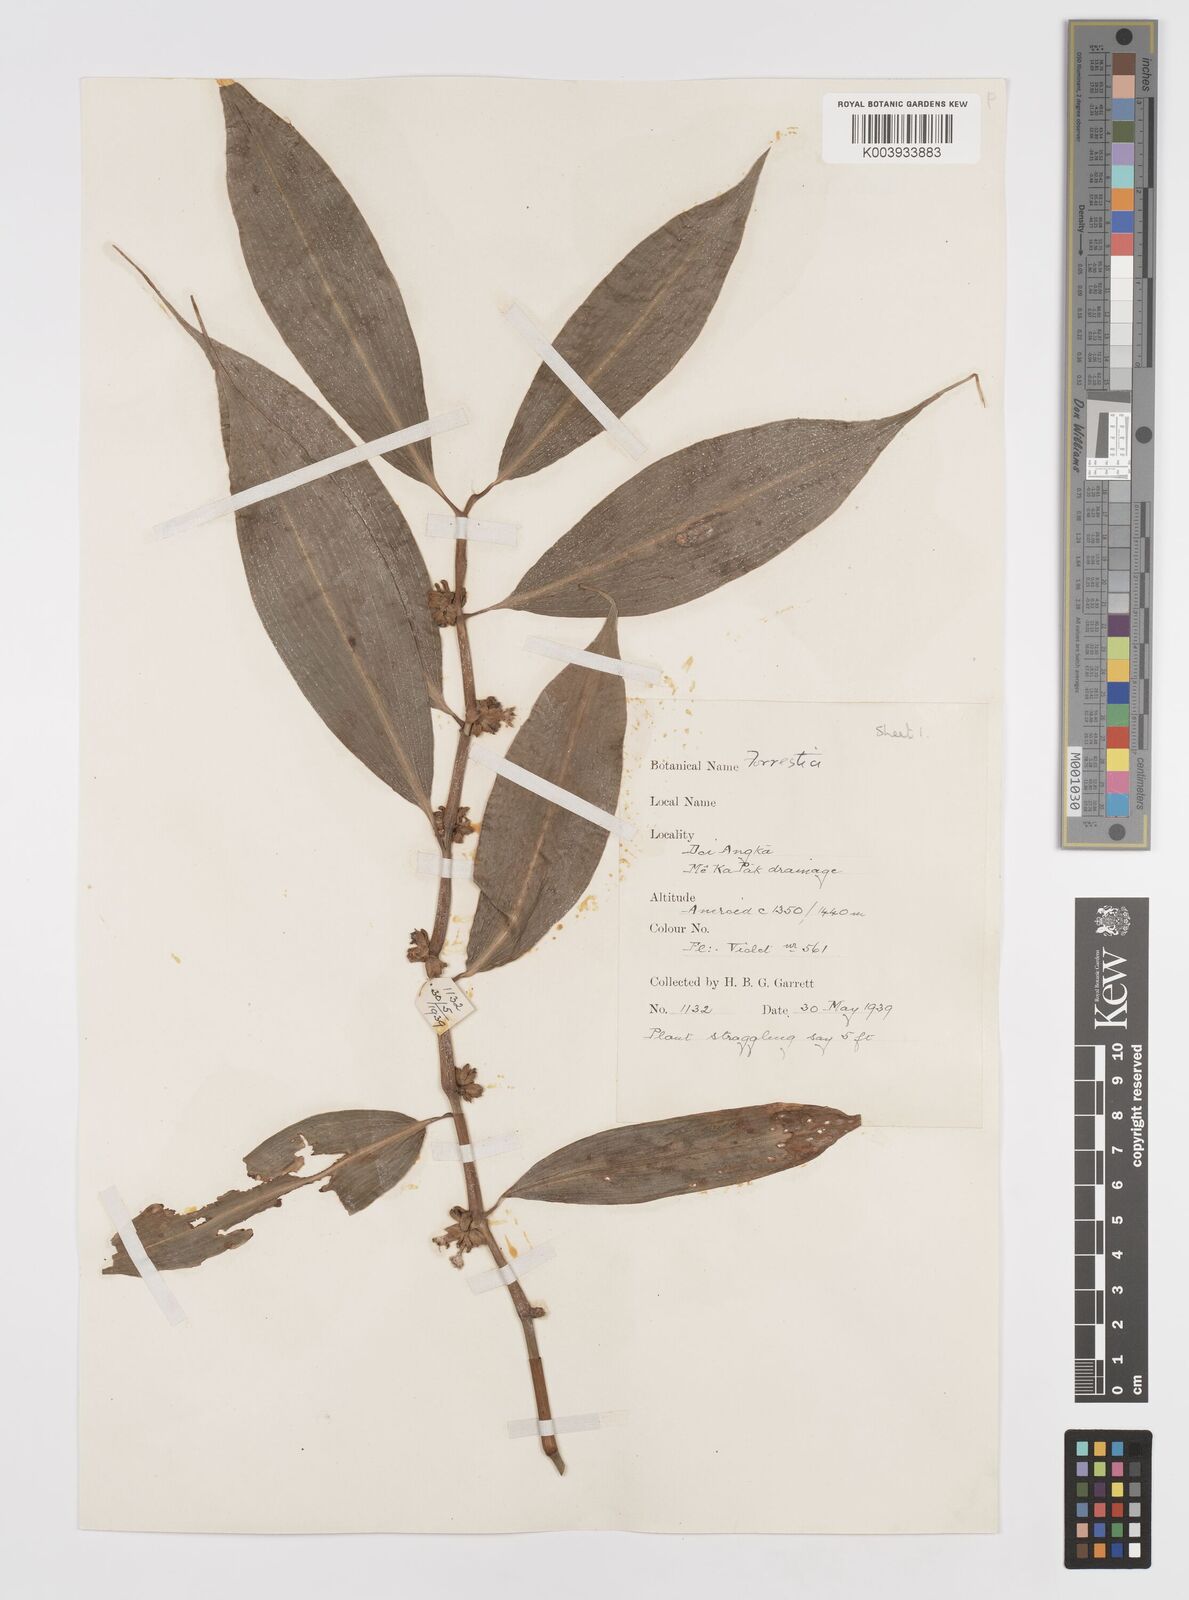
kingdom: Plantae
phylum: Tracheophyta
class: Liliopsida
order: Commelinales
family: Commelinaceae
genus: Amischotolype
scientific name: Amischotolype
